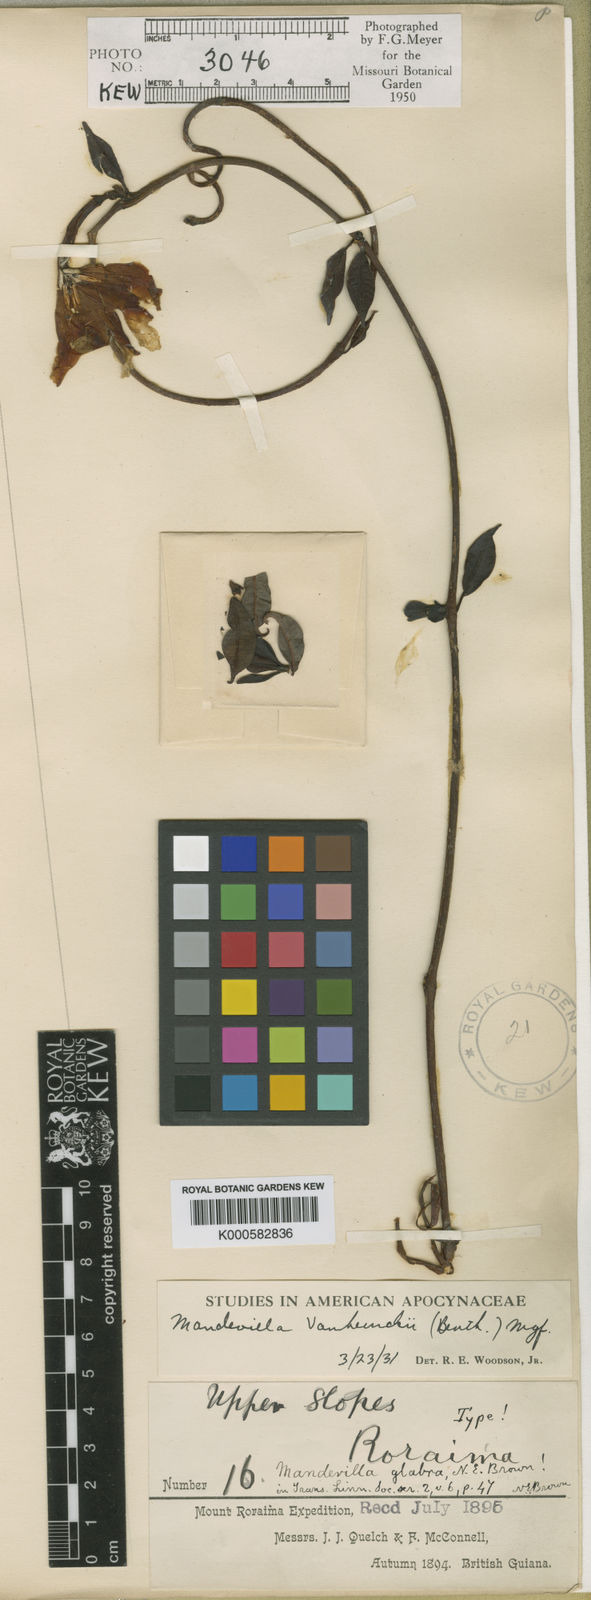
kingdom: Plantae
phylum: Tracheophyta
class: Magnoliopsida
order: Gentianales
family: Apocynaceae
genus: Mandevilla
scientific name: Mandevilla
